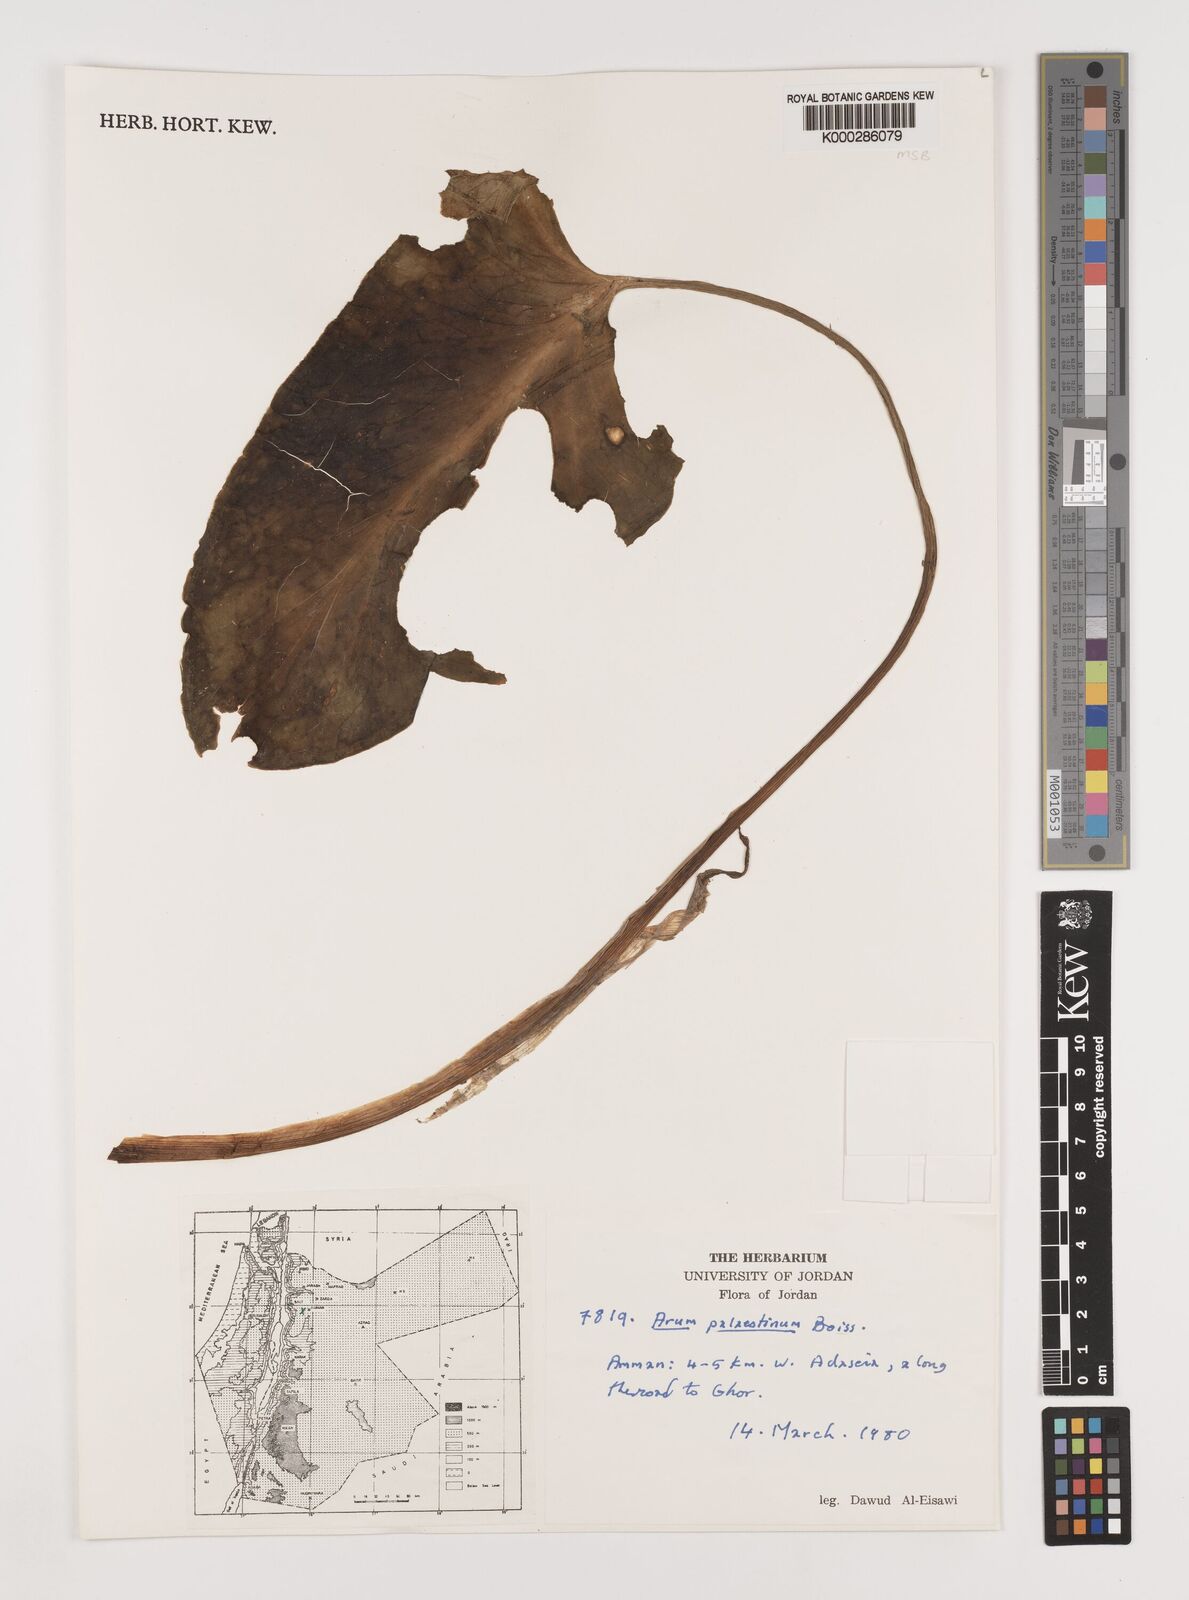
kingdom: Plantae
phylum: Tracheophyta
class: Liliopsida
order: Alismatales
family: Araceae
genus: Arum
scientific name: Arum palaestinum
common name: Solomon's lily
